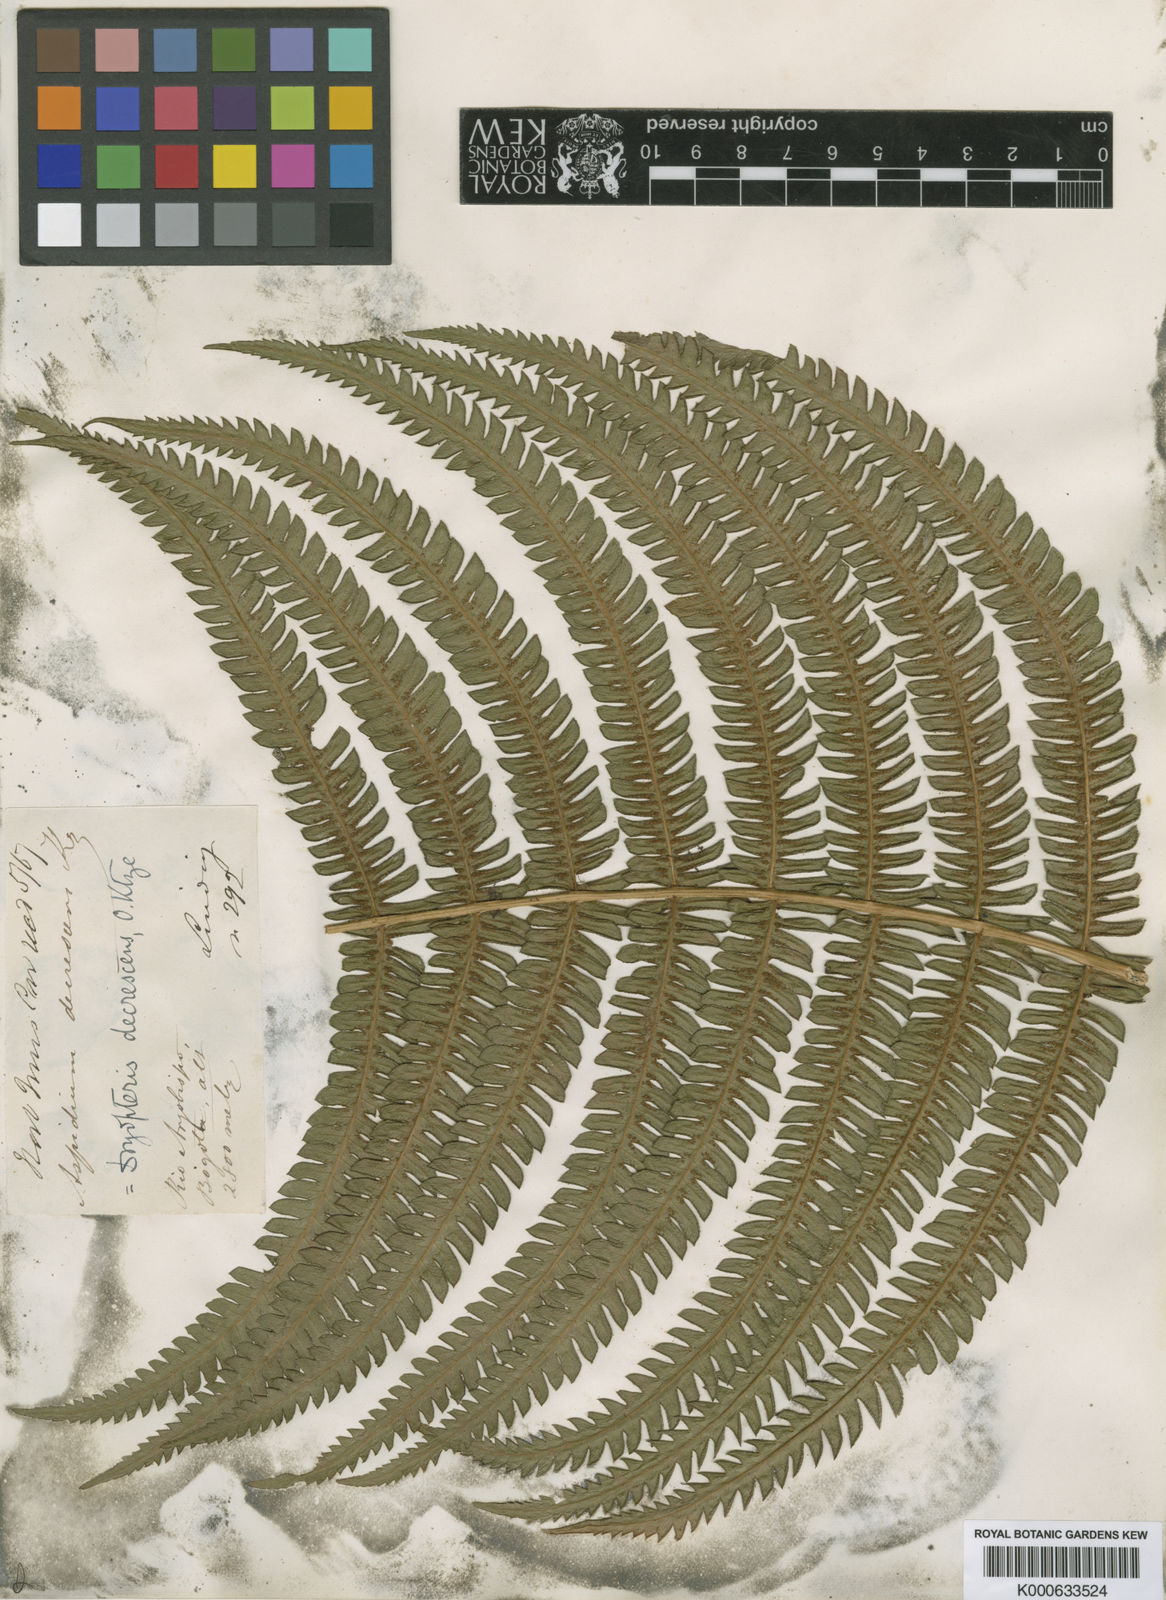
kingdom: Plantae
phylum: Tracheophyta
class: Polypodiopsida
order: Polypodiales
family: Thelypteridaceae
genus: Amauropelta
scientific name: Amauropelta
